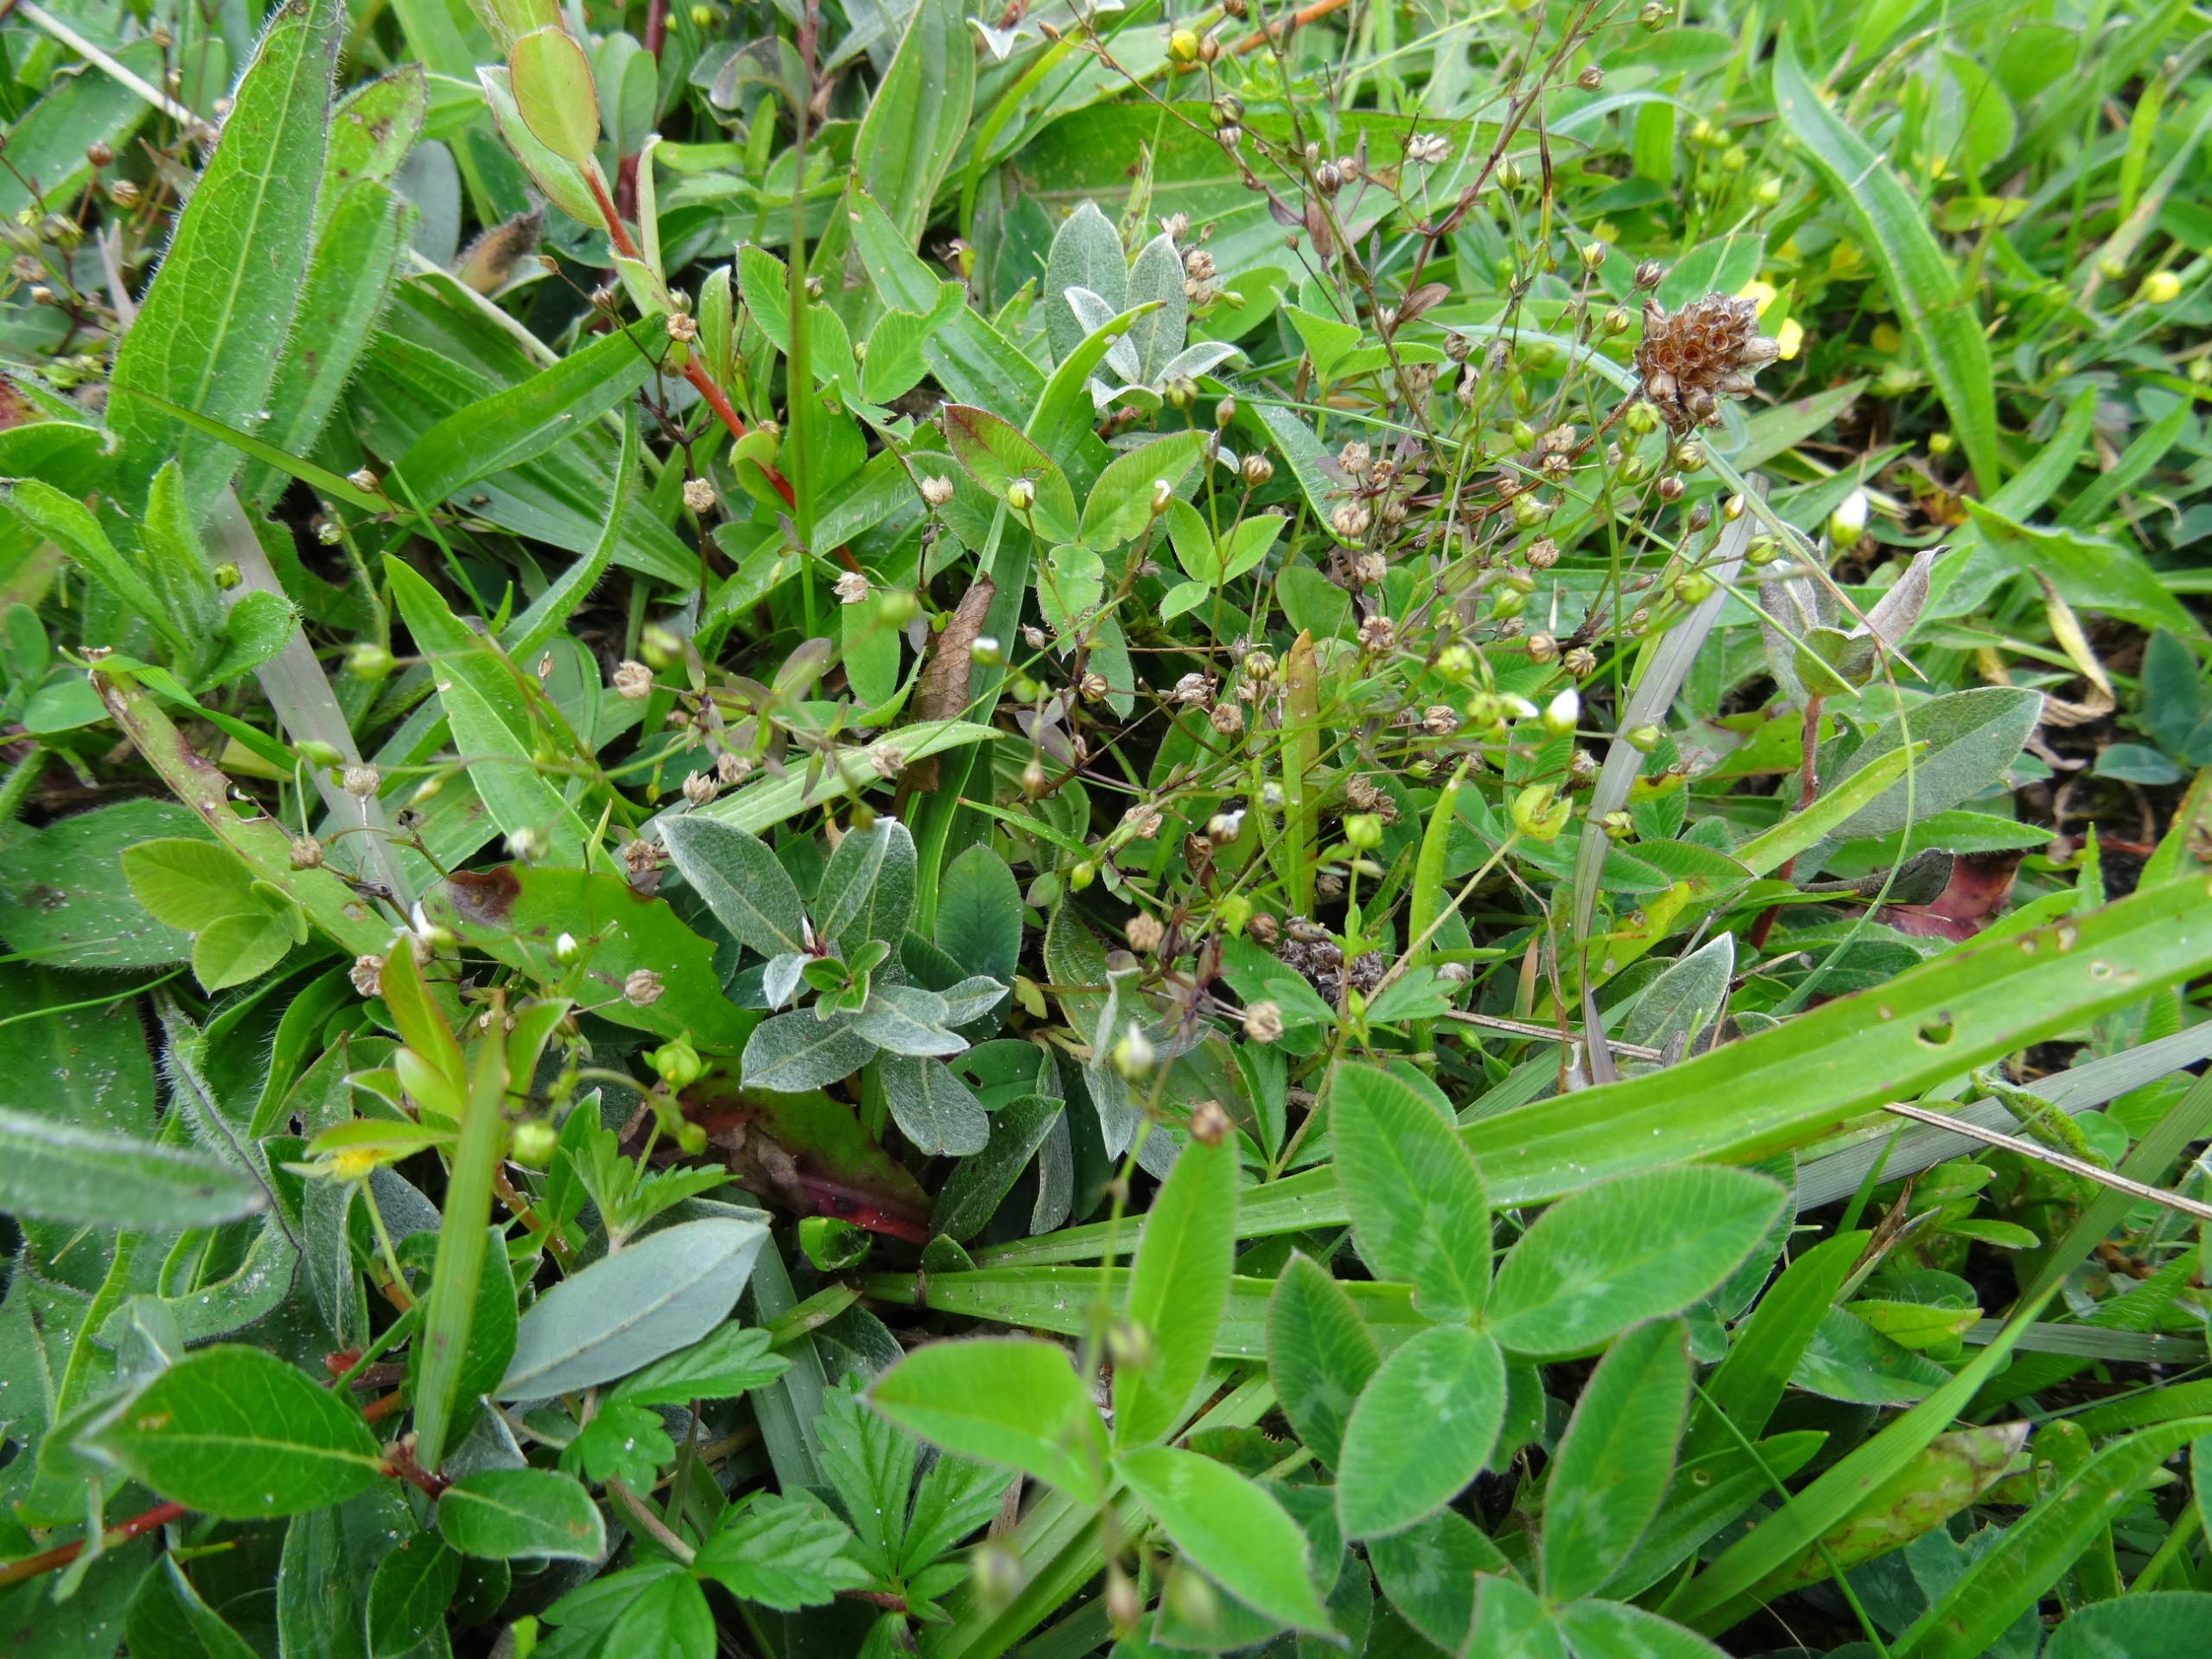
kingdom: Plantae
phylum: Tracheophyta
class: Magnoliopsida
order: Malpighiales
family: Linaceae
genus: Linum
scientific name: Linum catharticum
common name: Vild hør
